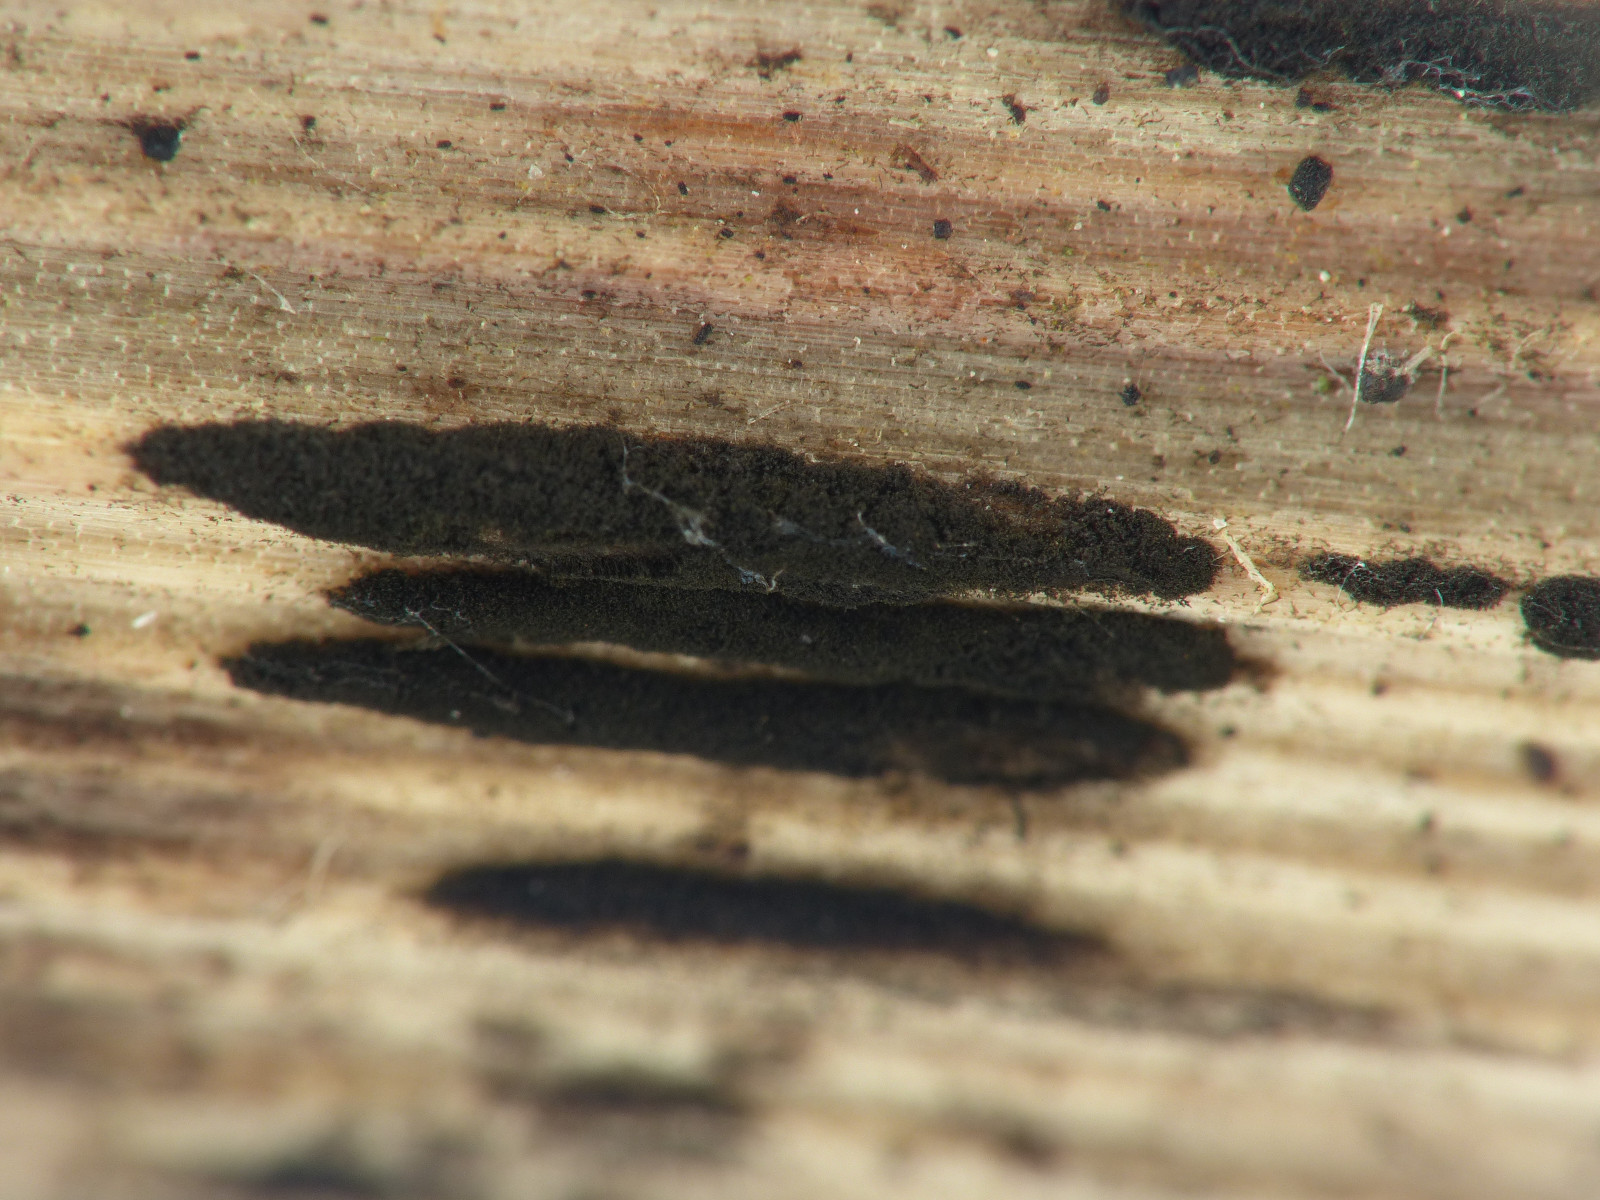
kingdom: Fungi
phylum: Ascomycota
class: Dothideomycetes
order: Pleosporales
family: Torulaceae
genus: Torula
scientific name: Torula herbarum
